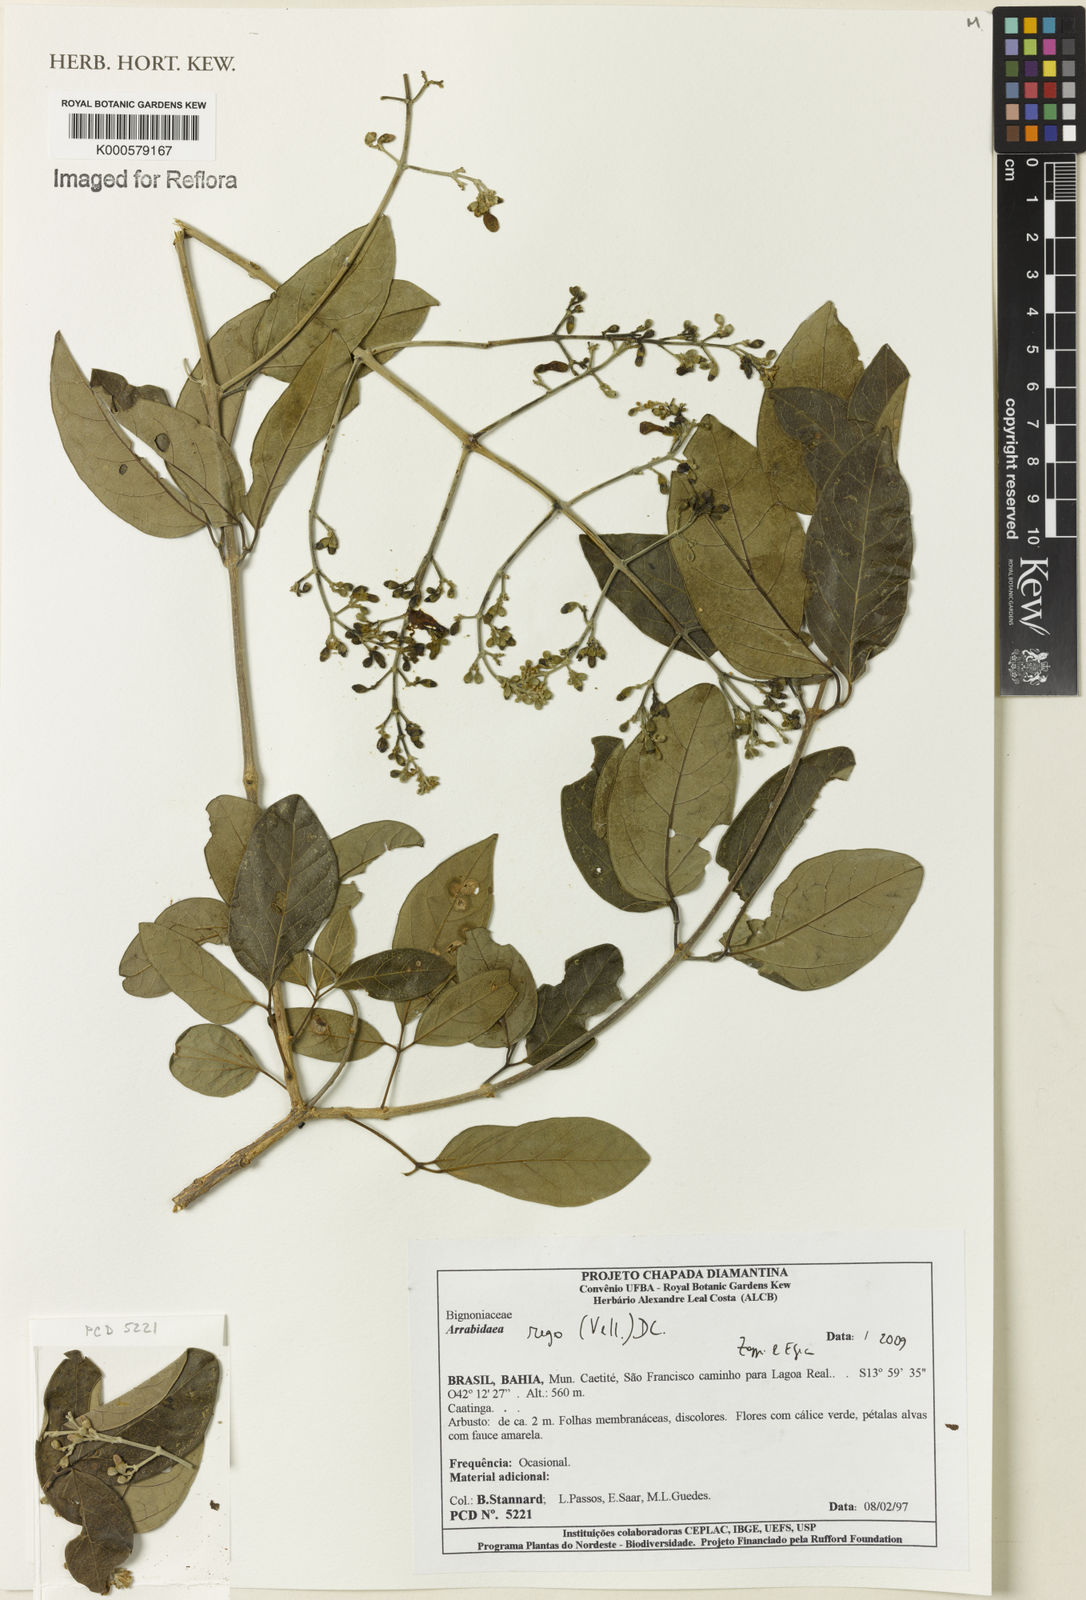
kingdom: Plantae
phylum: Tracheophyta
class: Magnoliopsida
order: Rosales
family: Rhamnaceae
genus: Arrabidaea
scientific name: Arrabidaea
